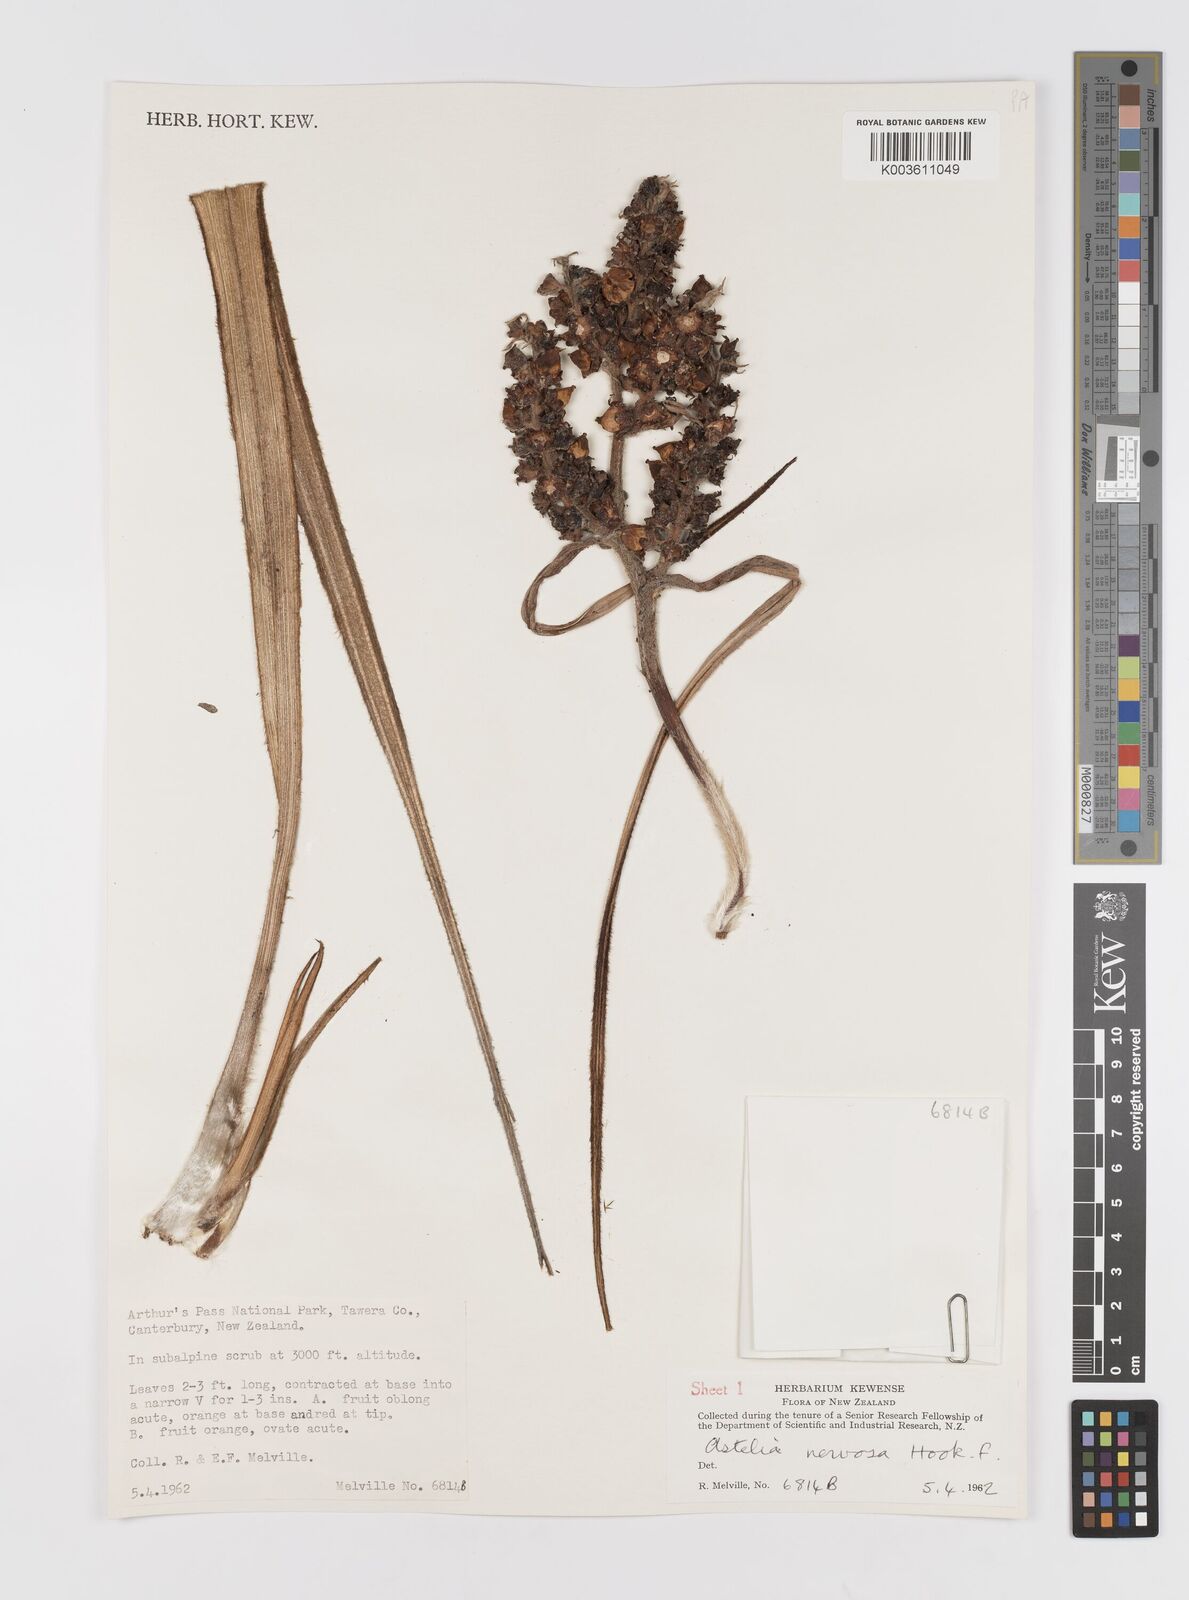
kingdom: Plantae
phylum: Tracheophyta
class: Liliopsida
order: Asparagales
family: Asteliaceae
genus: Astelia
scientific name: Astelia nervosa
